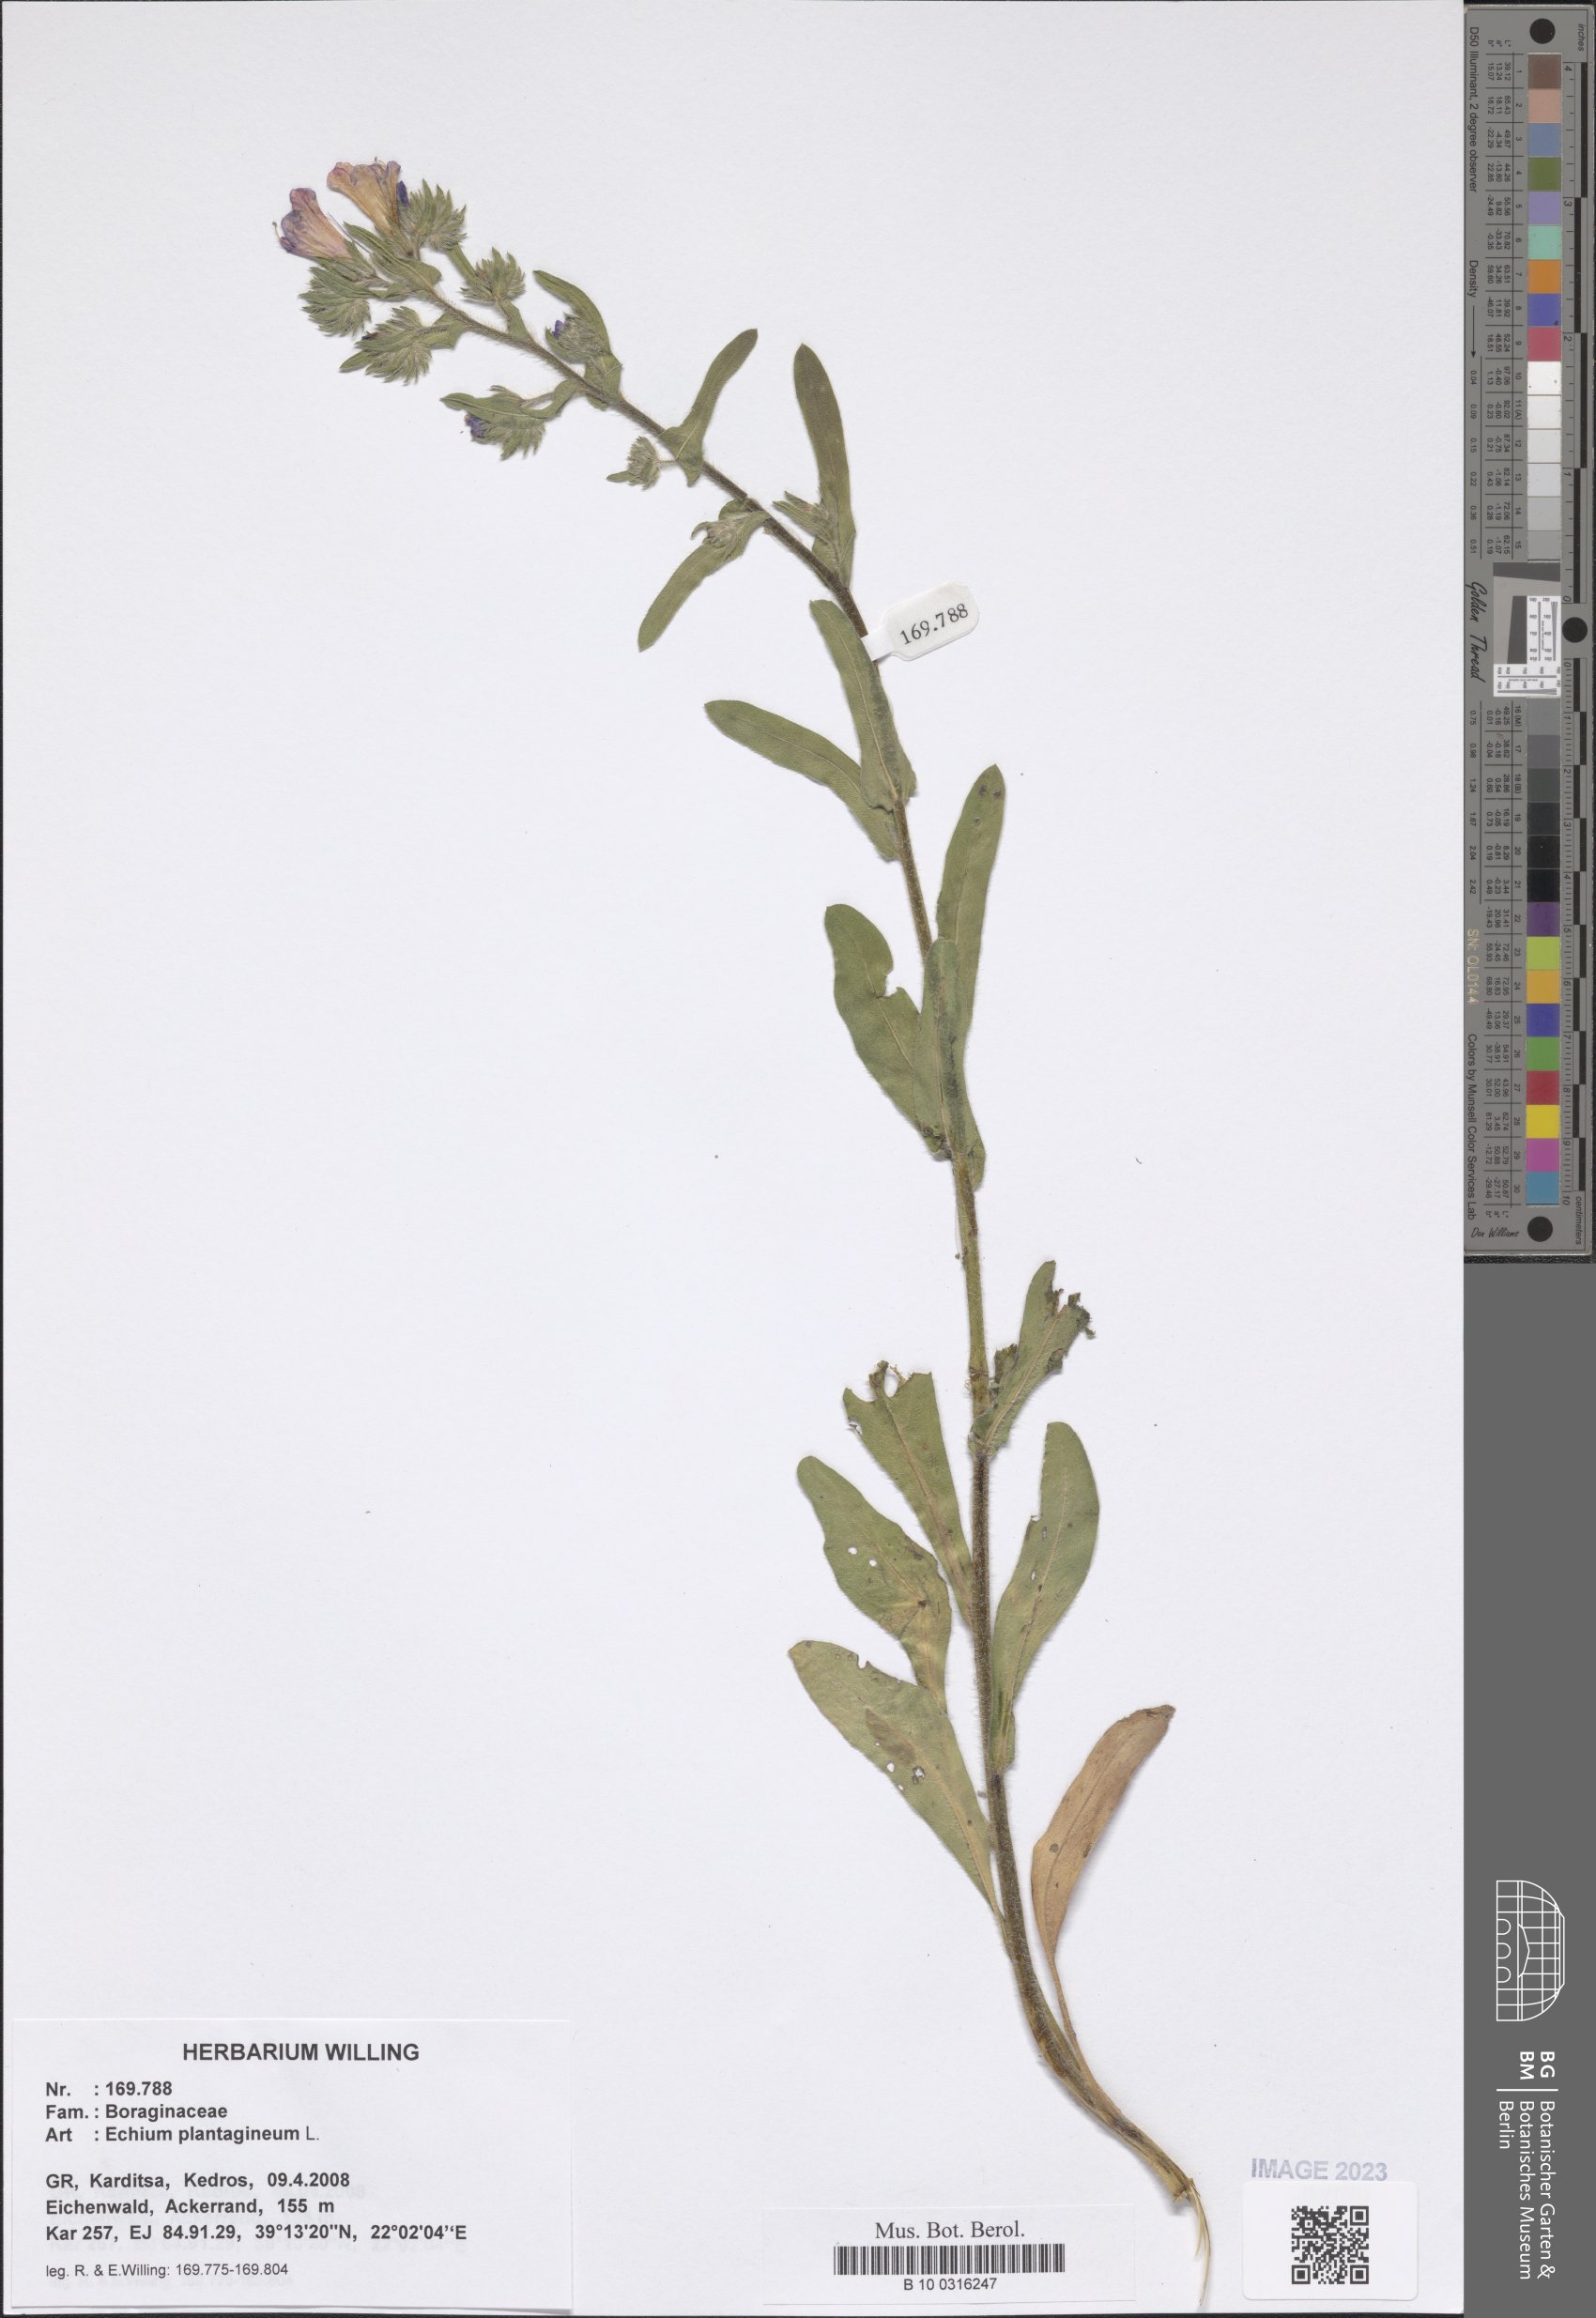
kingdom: Plantae
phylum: Tracheophyta
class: Magnoliopsida
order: Boraginales
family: Boraginaceae
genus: Echium
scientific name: Echium plantagineum
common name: Purple viper's-bugloss
